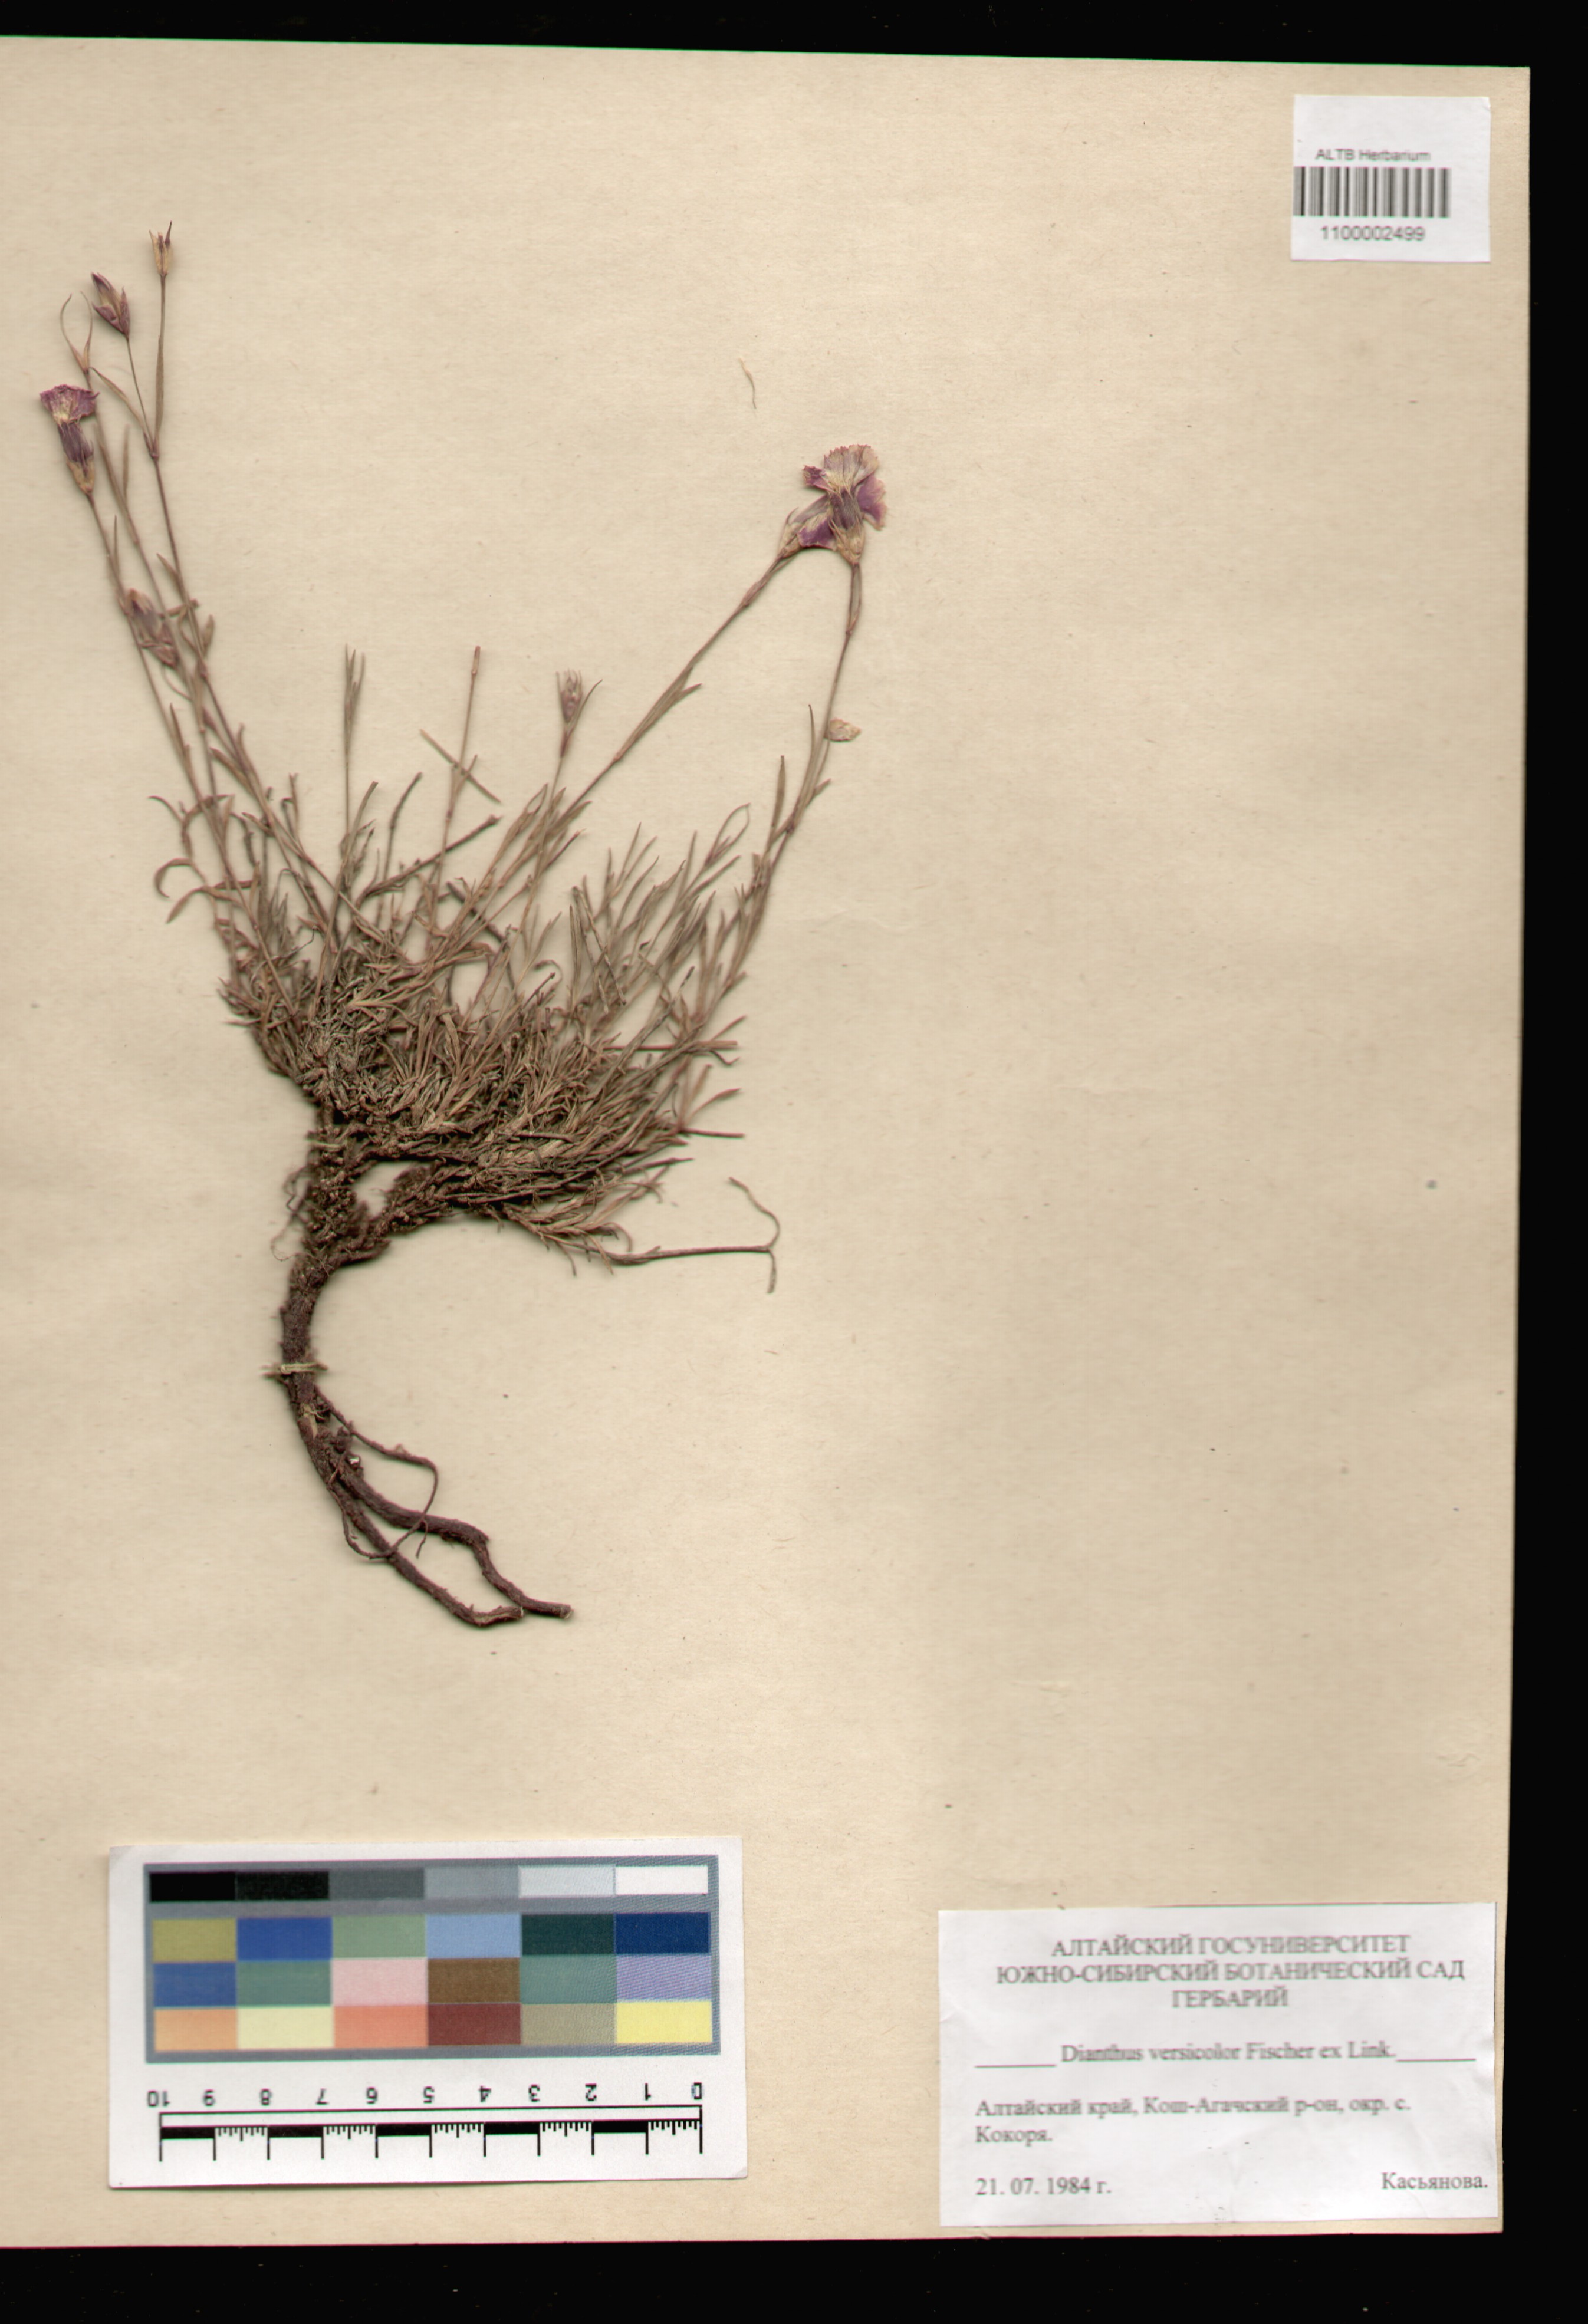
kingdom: Plantae
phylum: Tracheophyta
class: Magnoliopsida
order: Caryophyllales
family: Caryophyllaceae
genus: Dianthus
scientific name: Dianthus chinensis
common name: Rainbow pink
